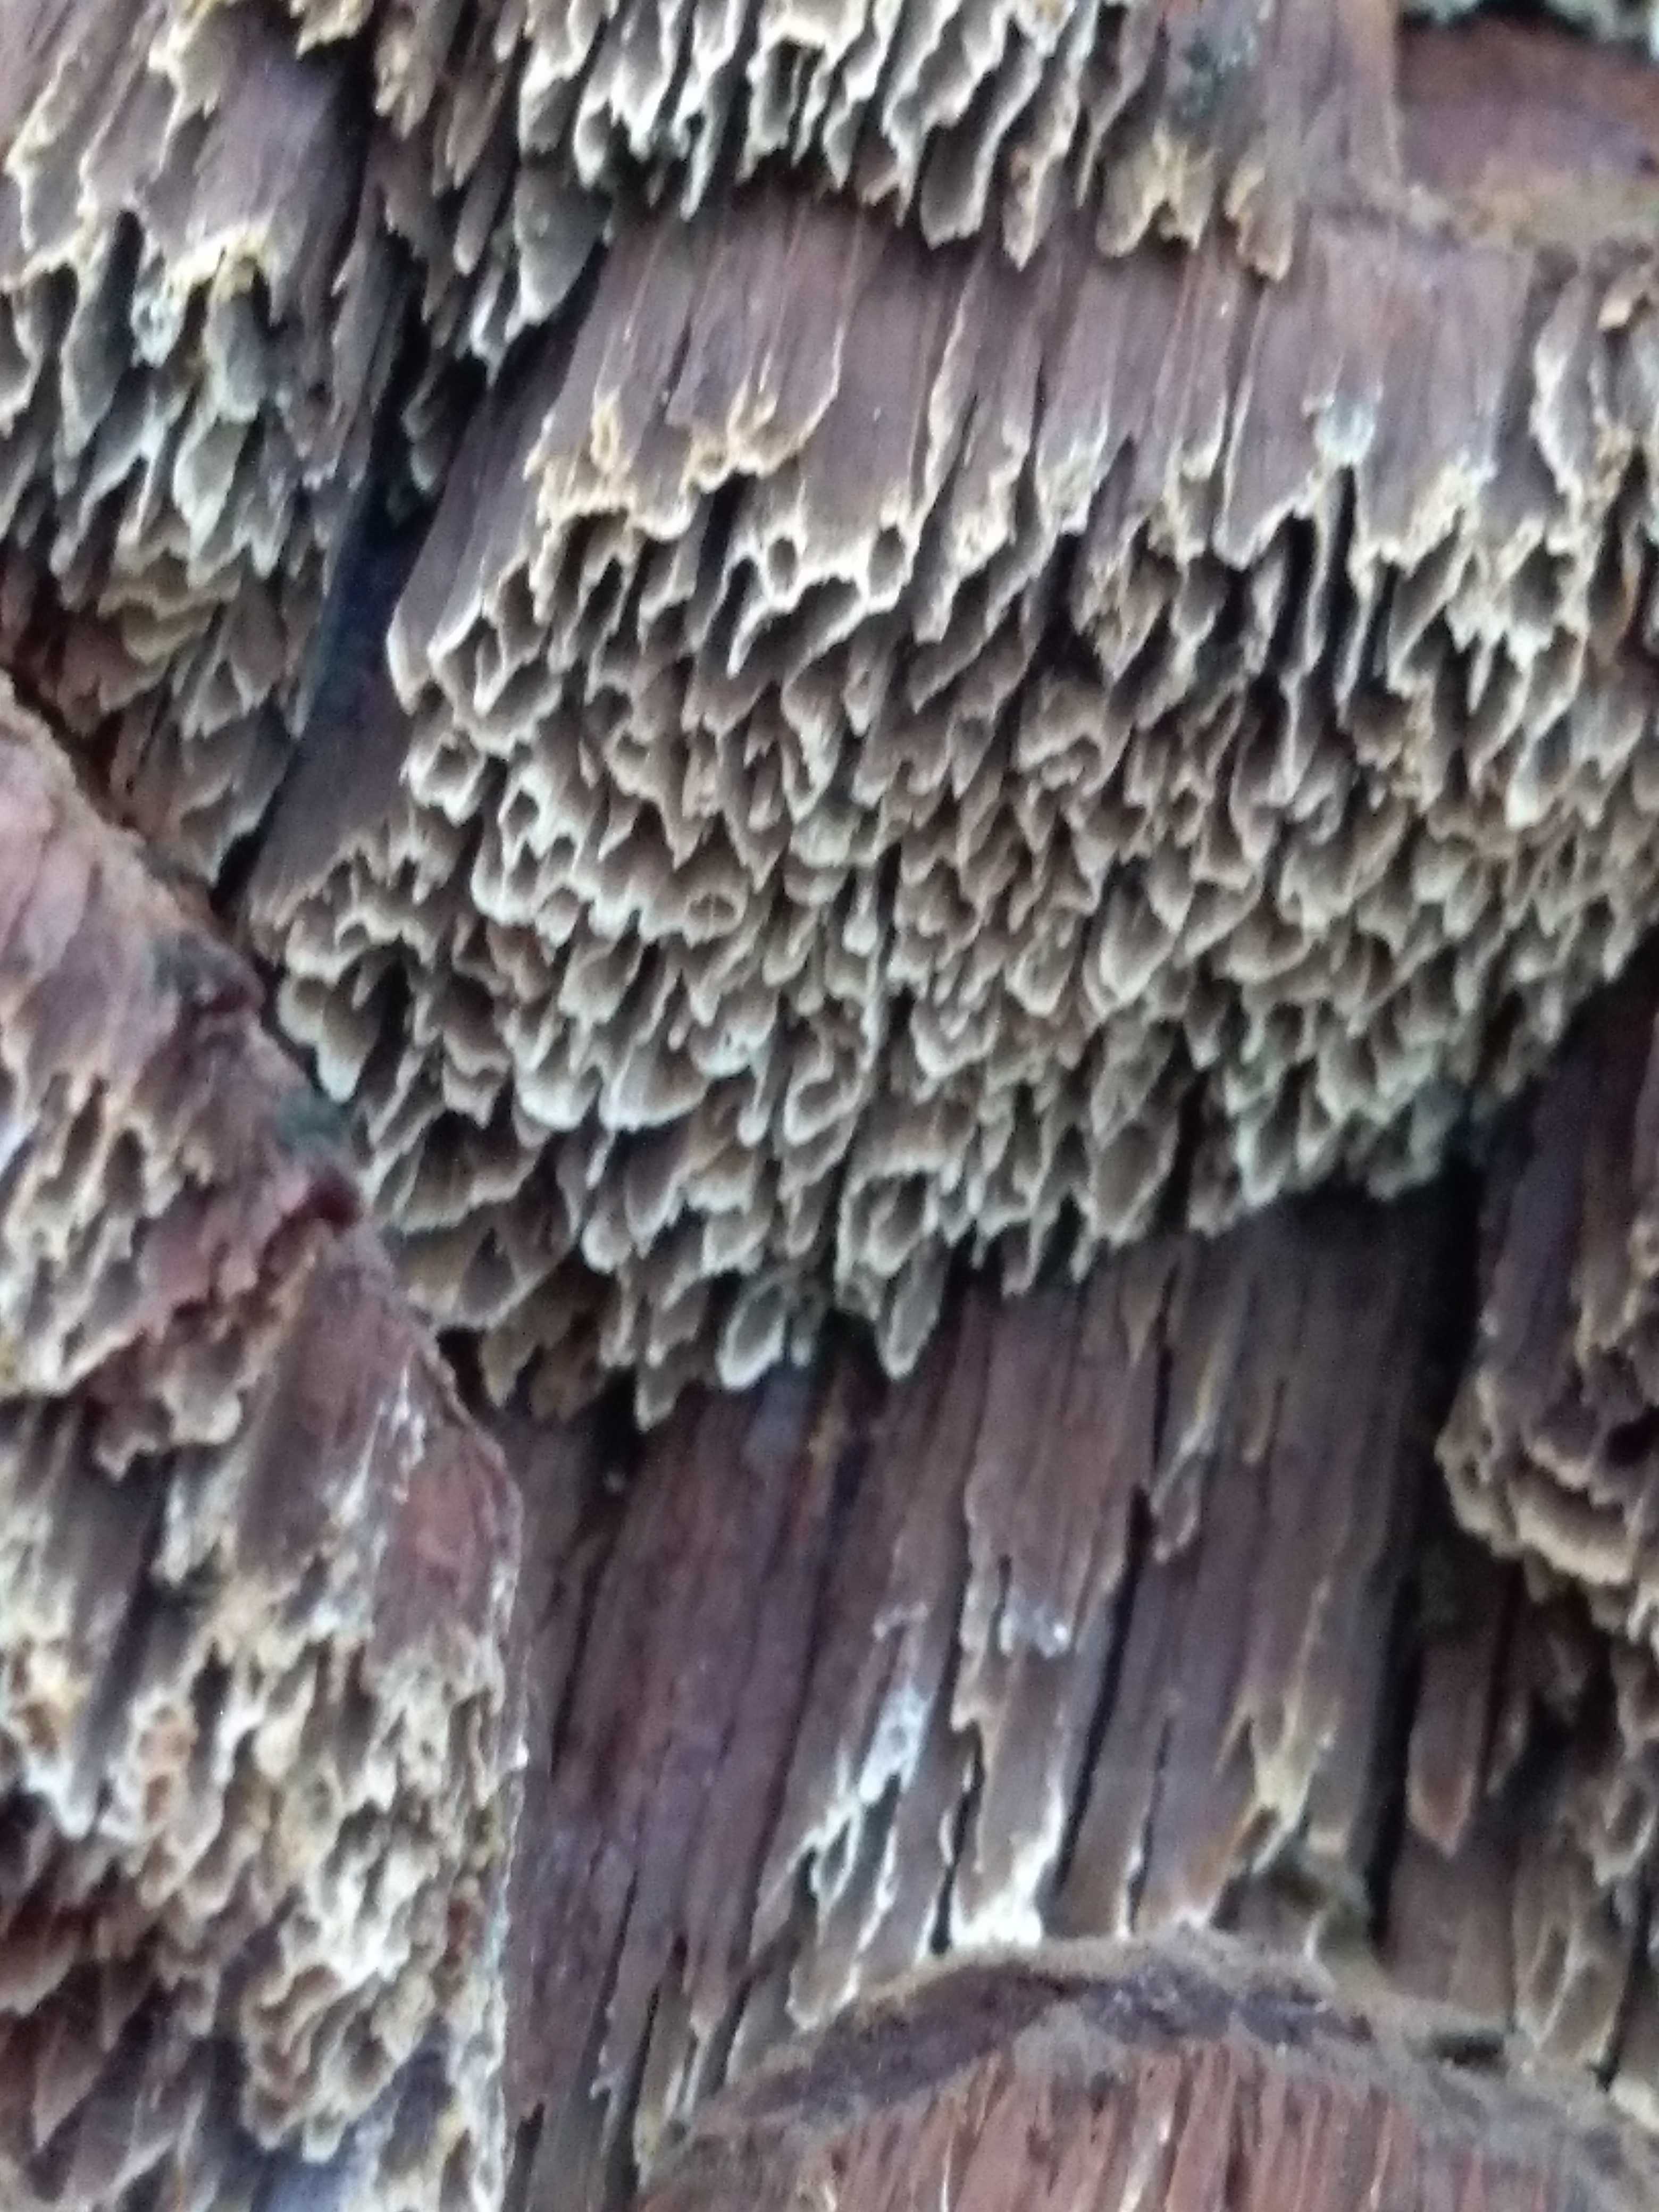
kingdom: Fungi
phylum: Basidiomycota
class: Agaricomycetes
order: Hymenochaetales
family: Hymenochaetaceae
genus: Mensularia
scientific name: Mensularia nodulosa
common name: bøge-spejlporesvamp
